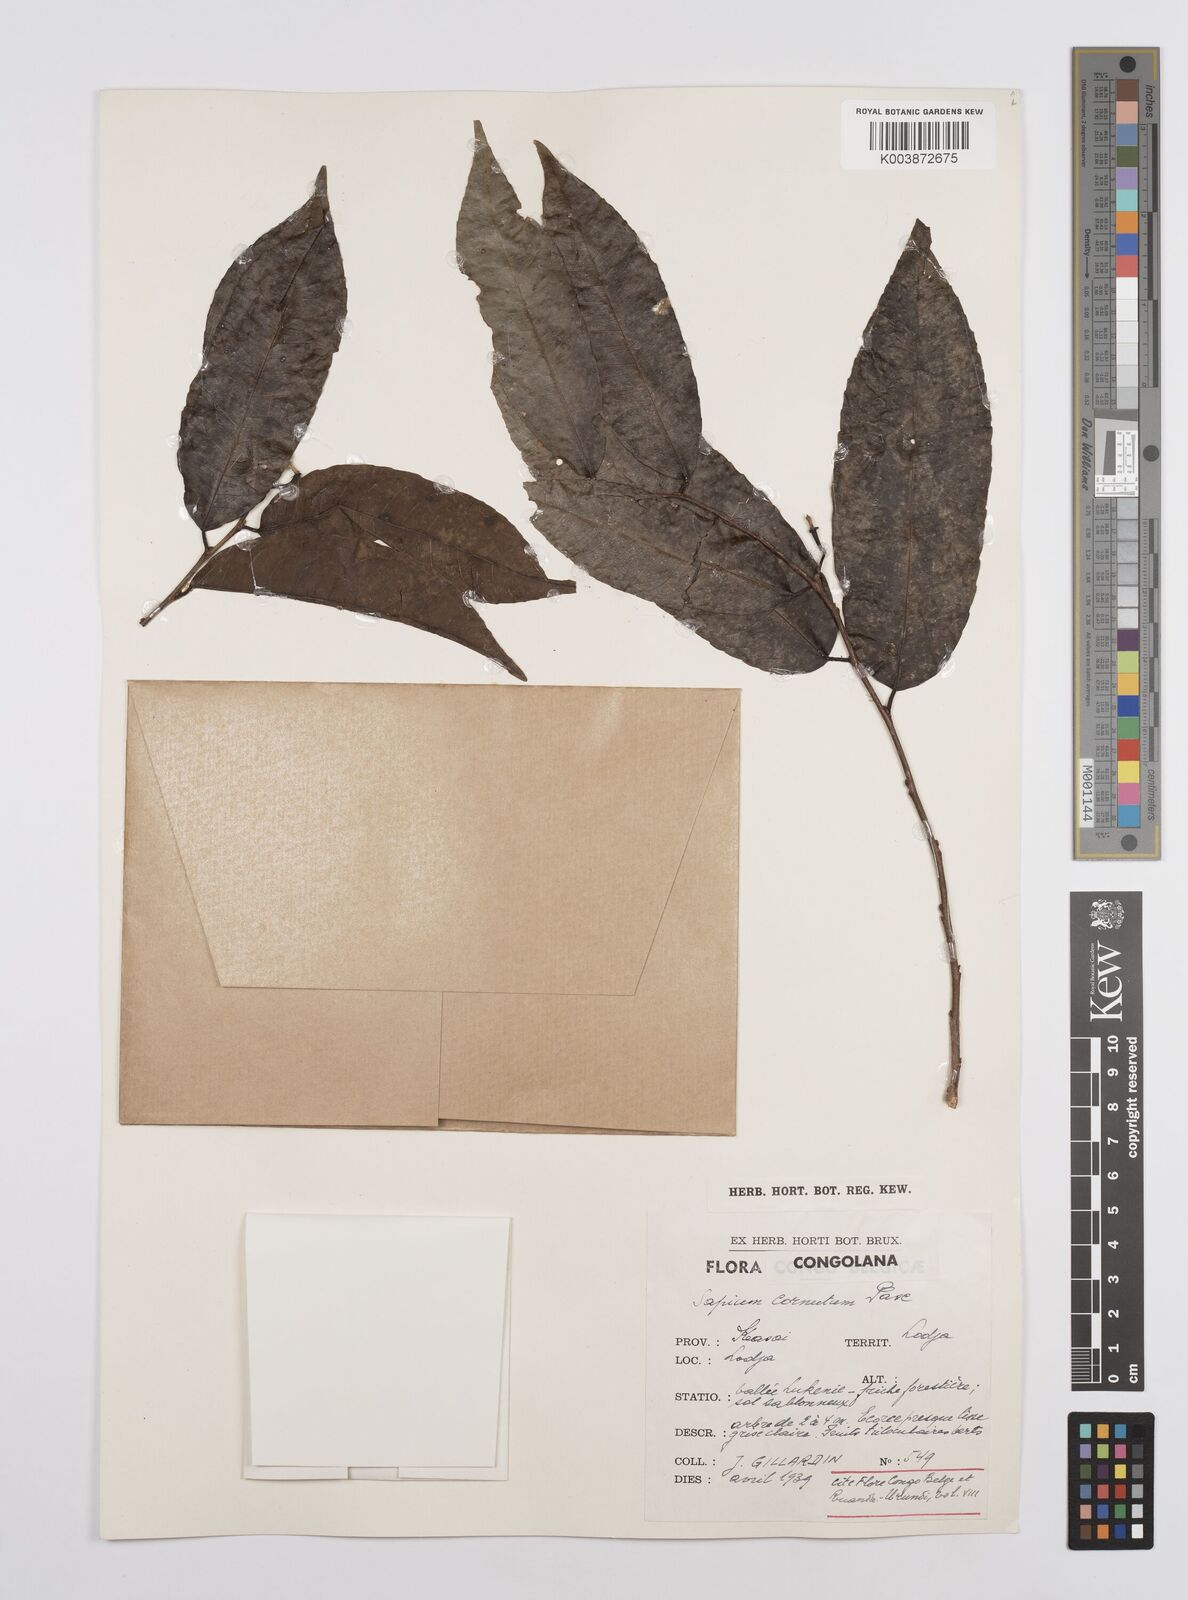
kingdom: Plantae
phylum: Tracheophyta
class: Magnoliopsida
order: Malpighiales
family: Euphorbiaceae
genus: Sclerocroton
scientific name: Sclerocroton cornutus
